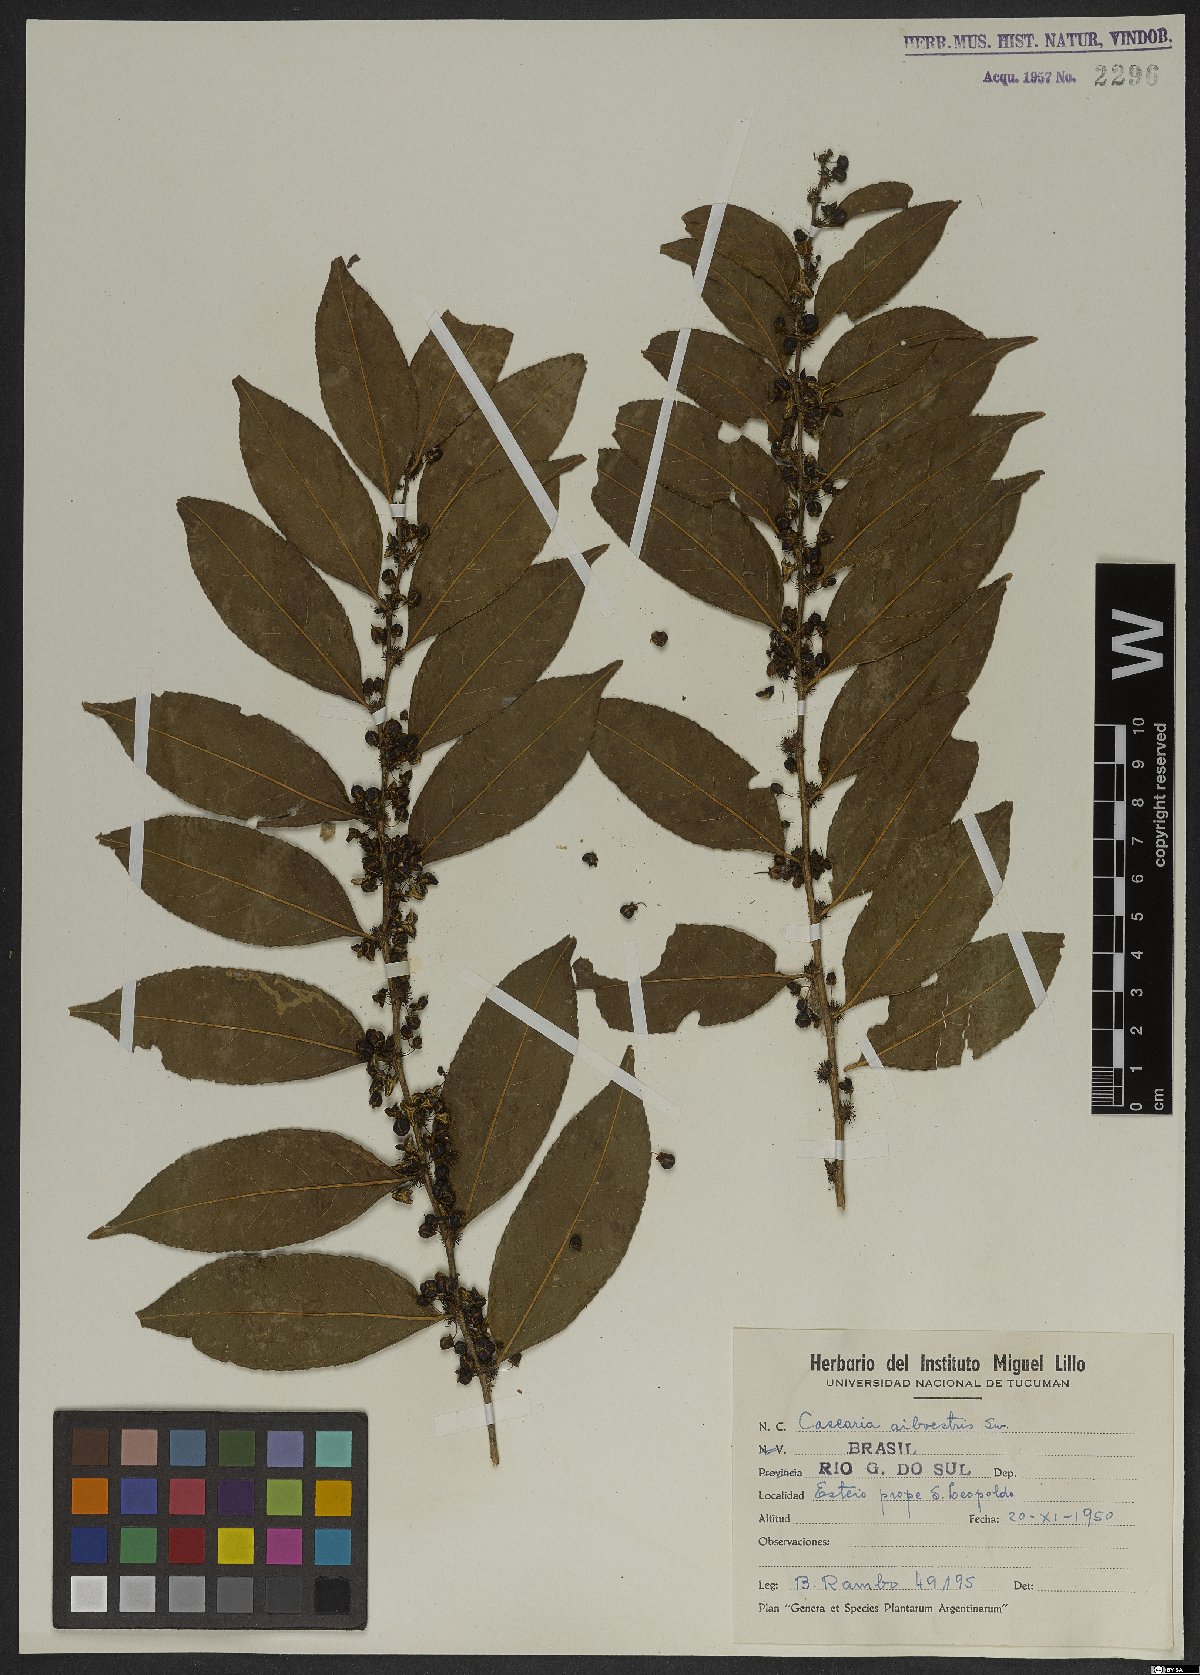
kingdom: Plantae
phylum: Tracheophyta
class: Magnoliopsida
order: Malpighiales
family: Salicaceae
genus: Casearia
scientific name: Casearia sylvestris
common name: Wild sage
